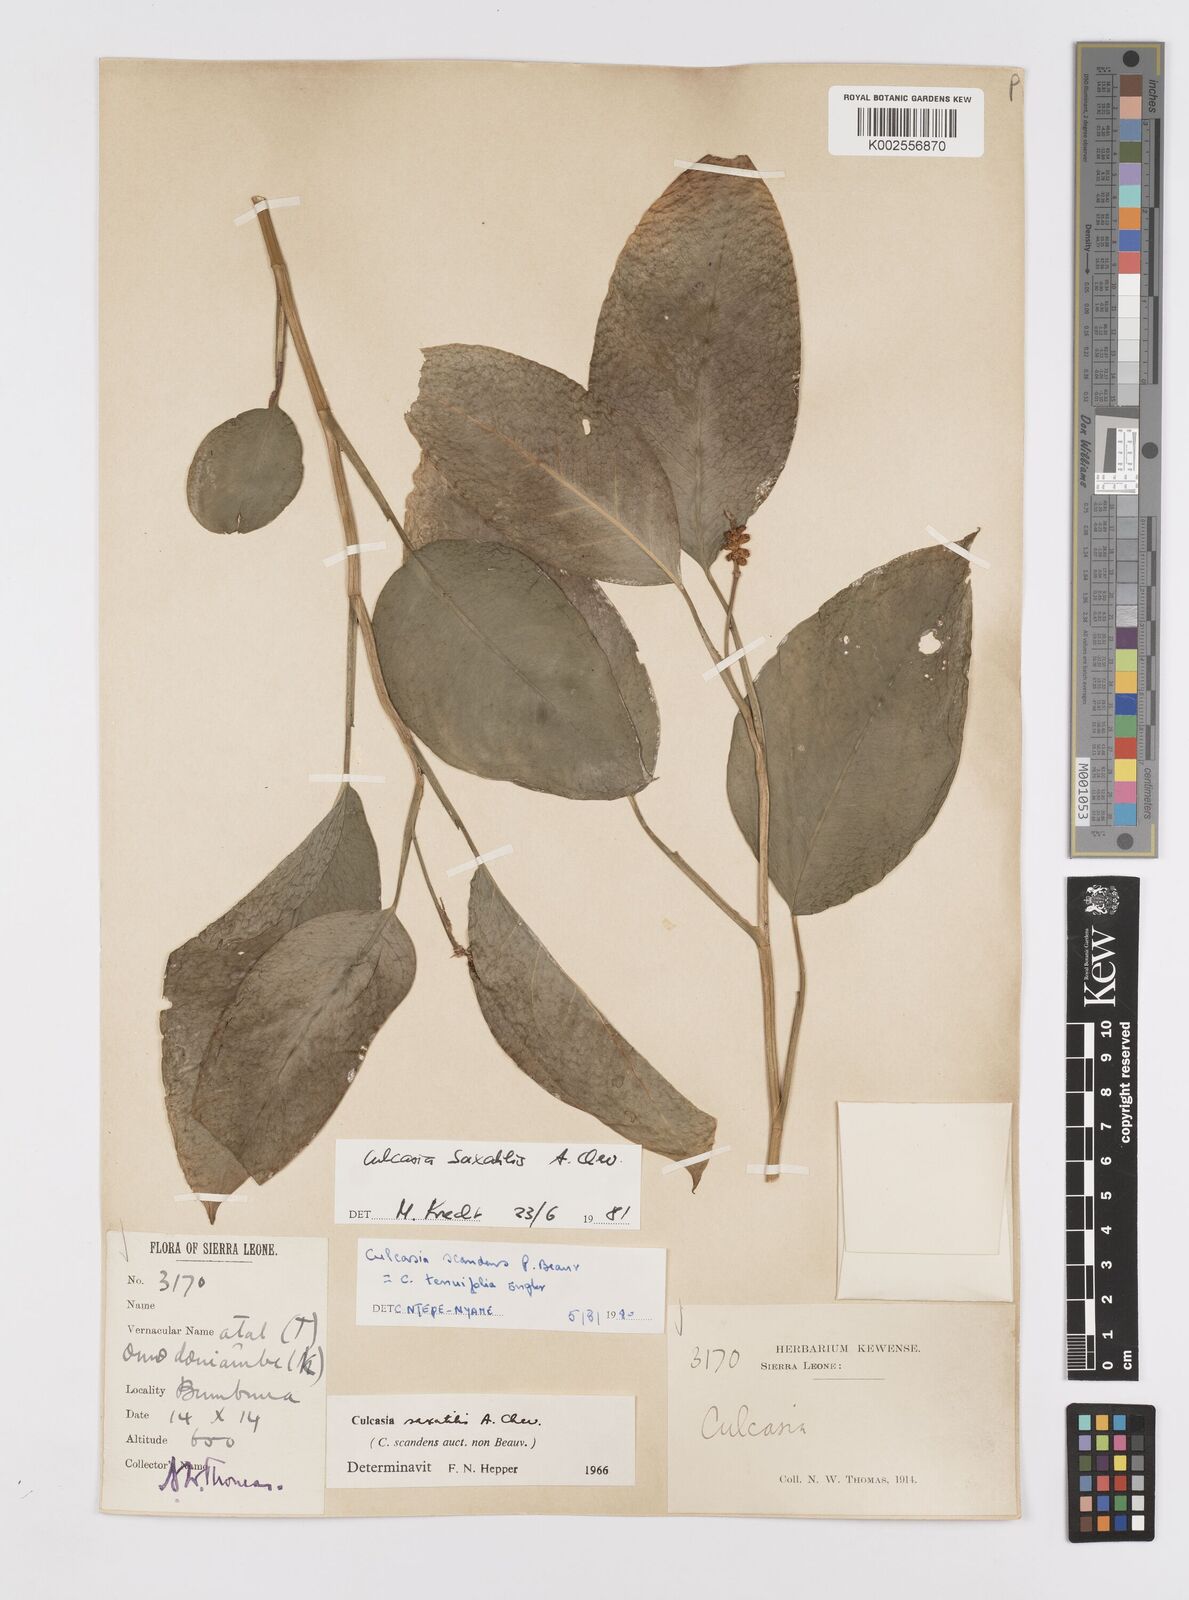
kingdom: Plantae
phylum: Tracheophyta
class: Liliopsida
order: Alismatales
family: Araceae
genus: Culcasia
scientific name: Culcasia scandens
